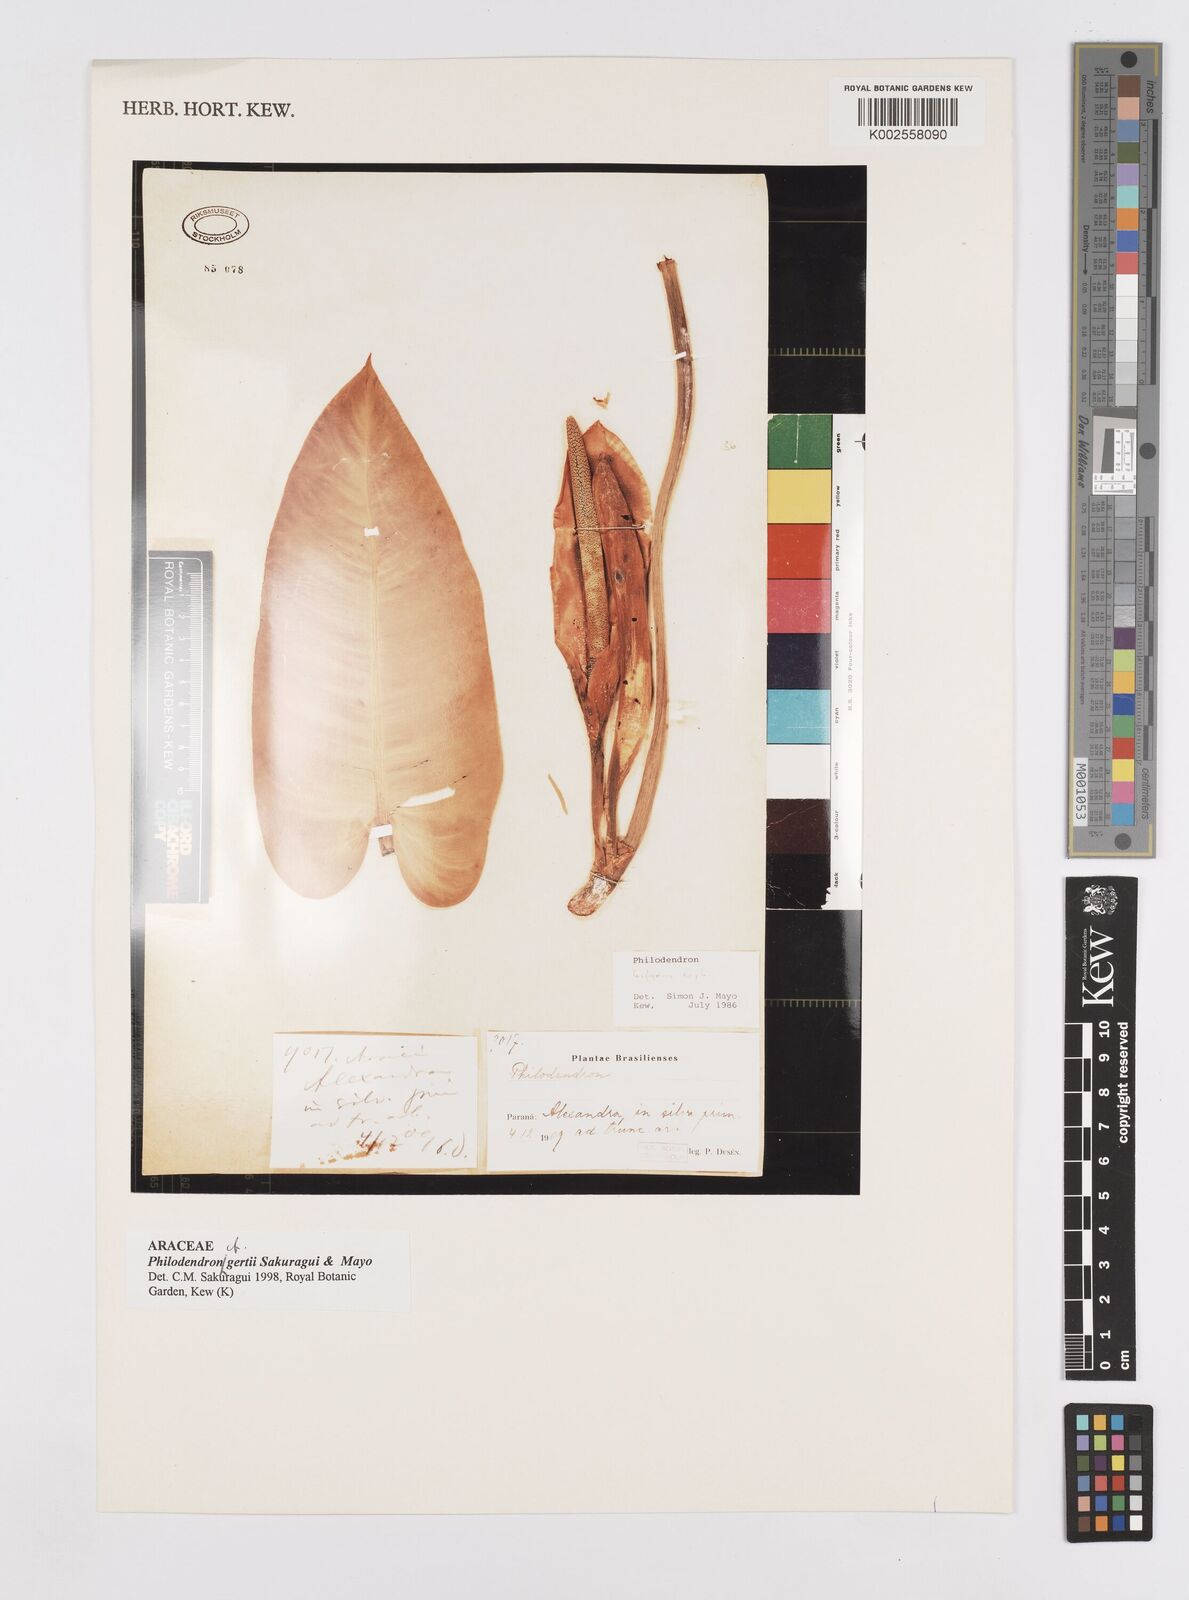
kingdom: Plantae
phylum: Tracheophyta
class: Liliopsida
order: Alismatales
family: Araceae
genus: Philodendron
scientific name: Philodendron
